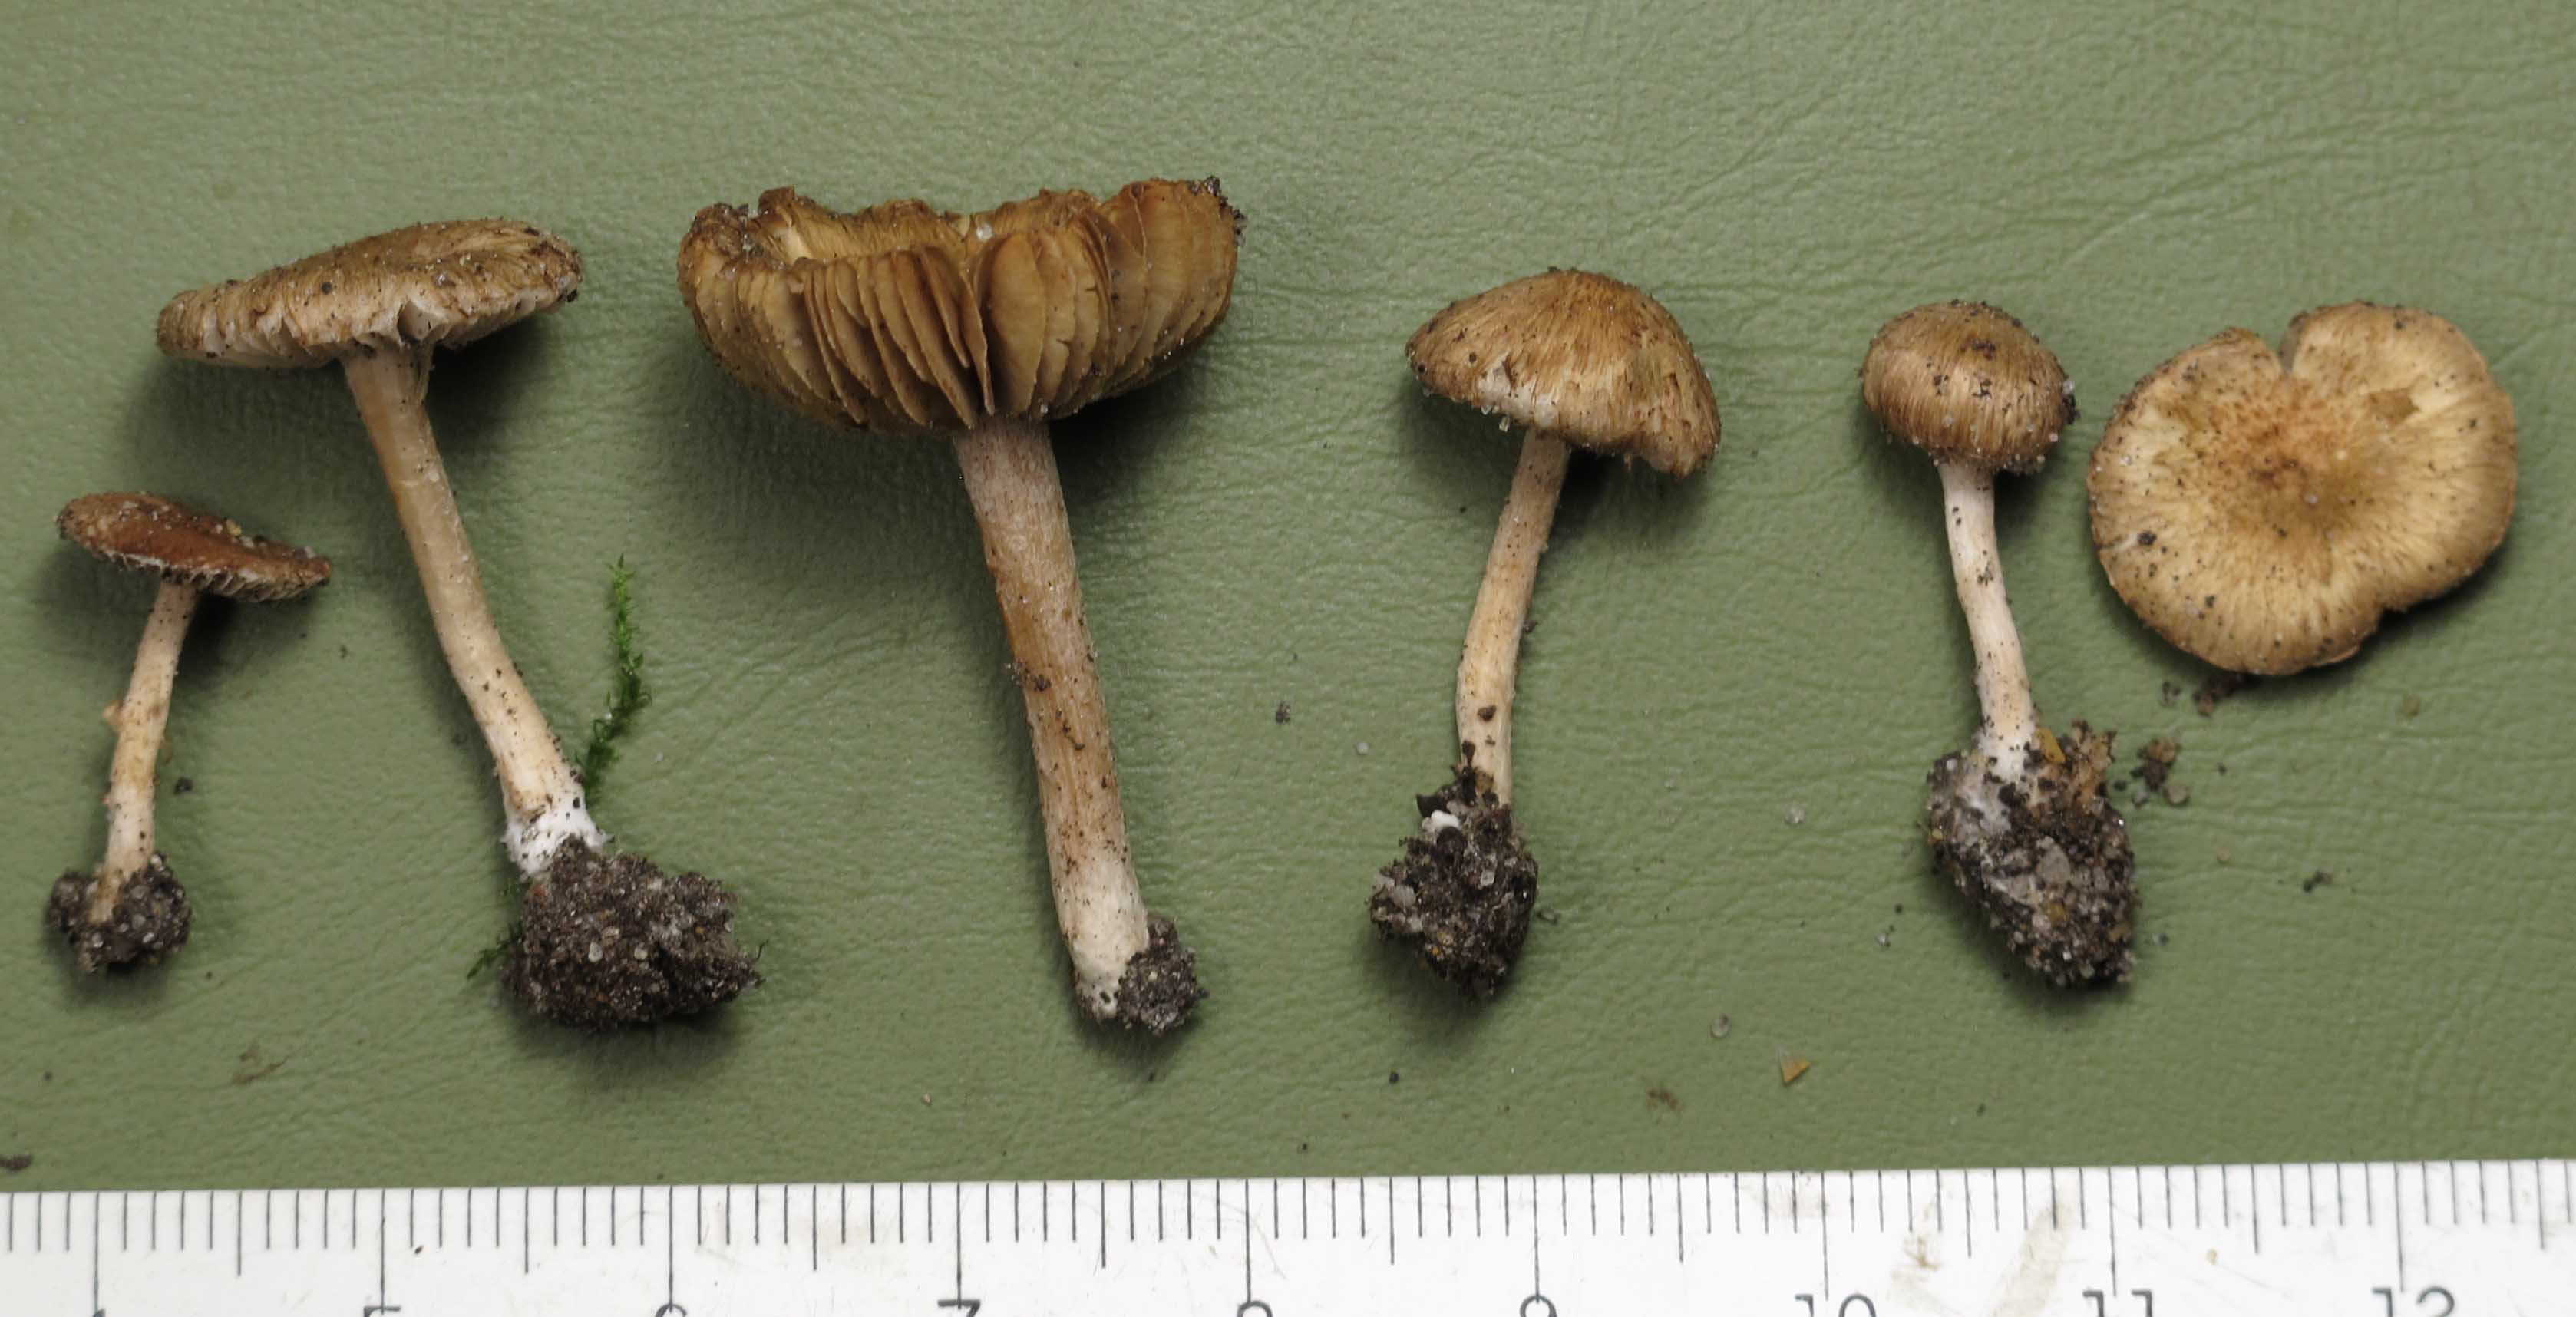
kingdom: Fungi
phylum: Basidiomycota
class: Agaricomycetes
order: Agaricales
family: Inocybaceae
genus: Inocybe
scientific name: Inocybe pelargonium
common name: pelargonie-trævlhat
